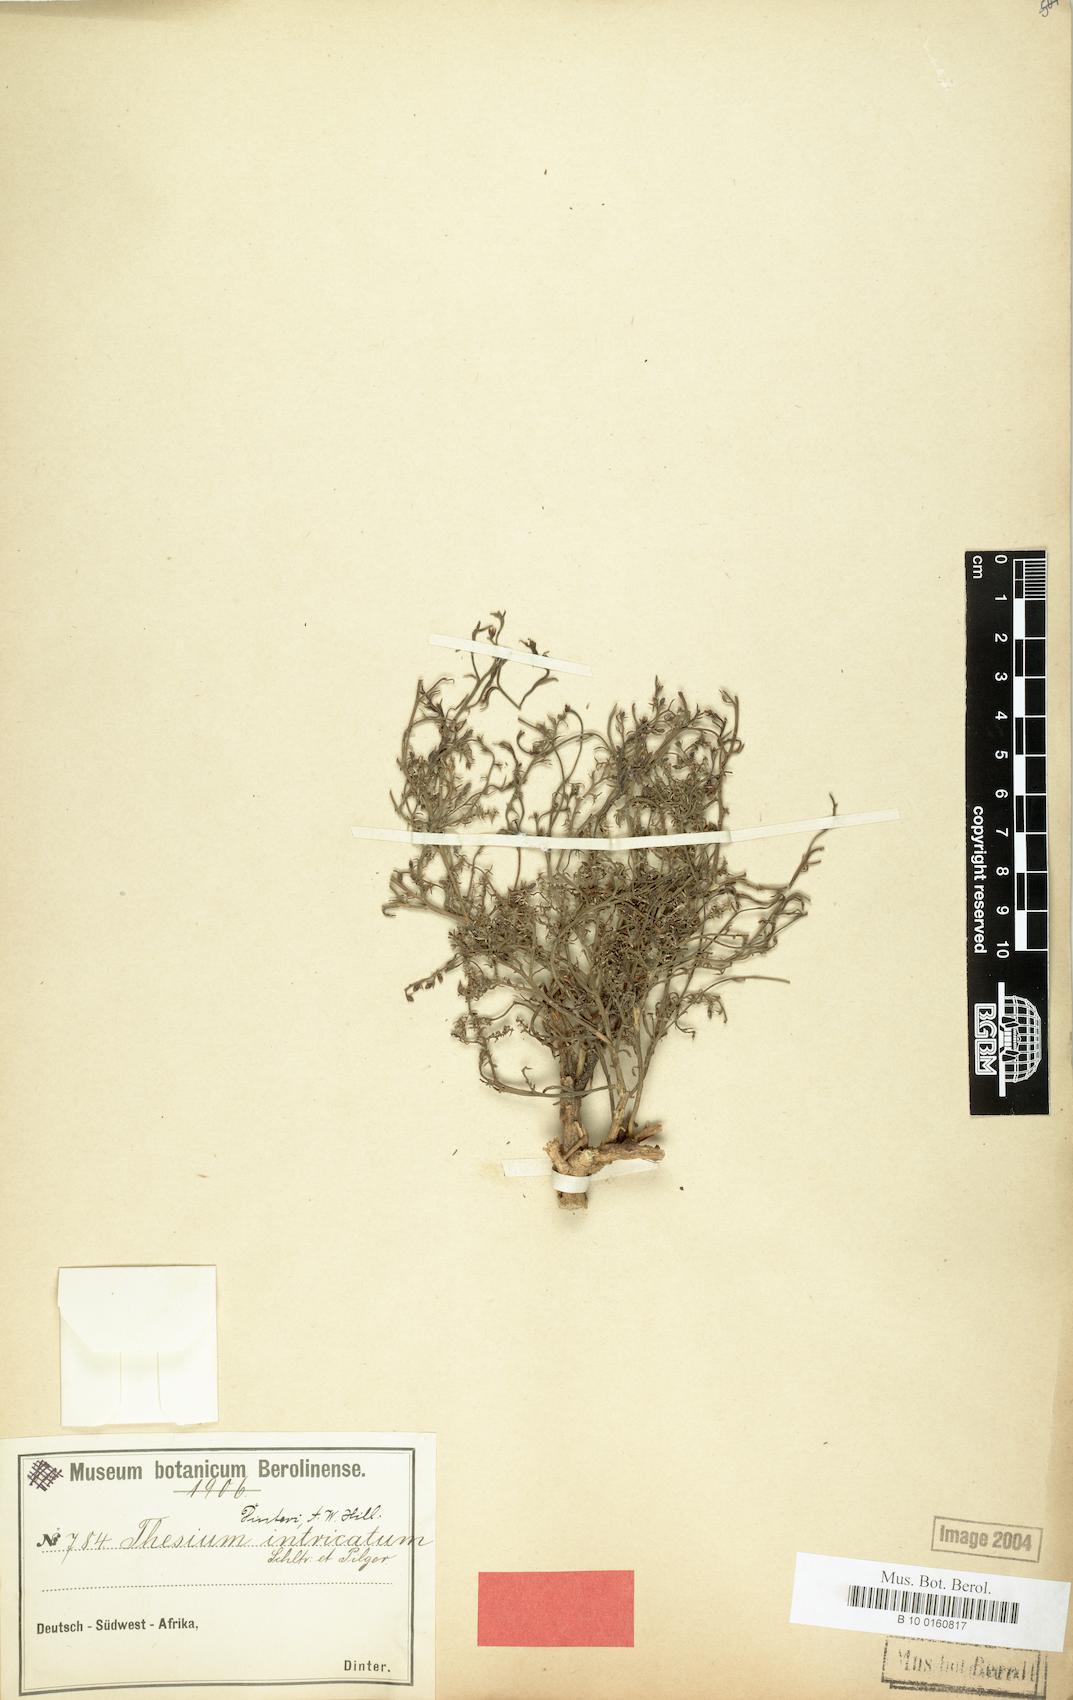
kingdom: Plantae
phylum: Tracheophyta
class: Magnoliopsida
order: Santalales
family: Thesiaceae
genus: Thesium
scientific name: Thesium megalocarpum
